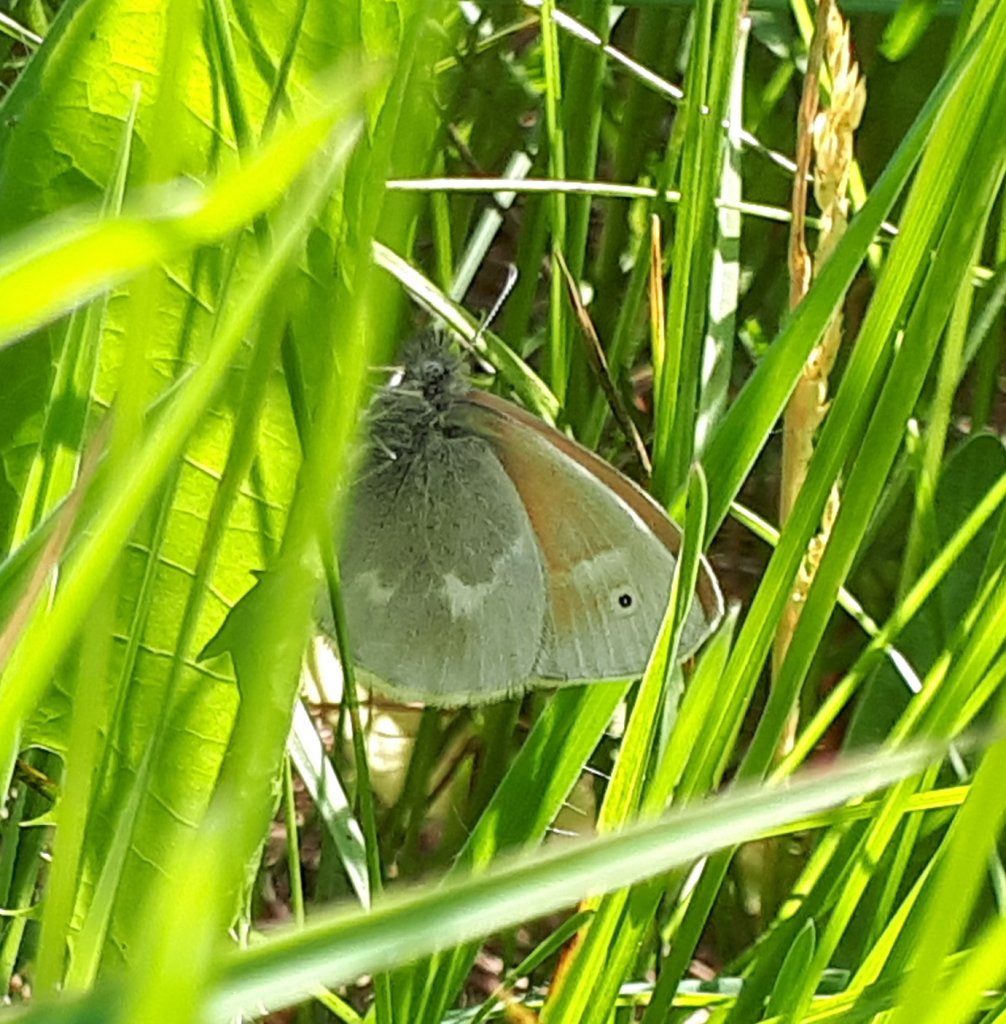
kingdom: Animalia
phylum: Arthropoda
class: Insecta
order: Lepidoptera
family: Nymphalidae
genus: Coenonympha
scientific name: Coenonympha tullia
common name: Large Heath
